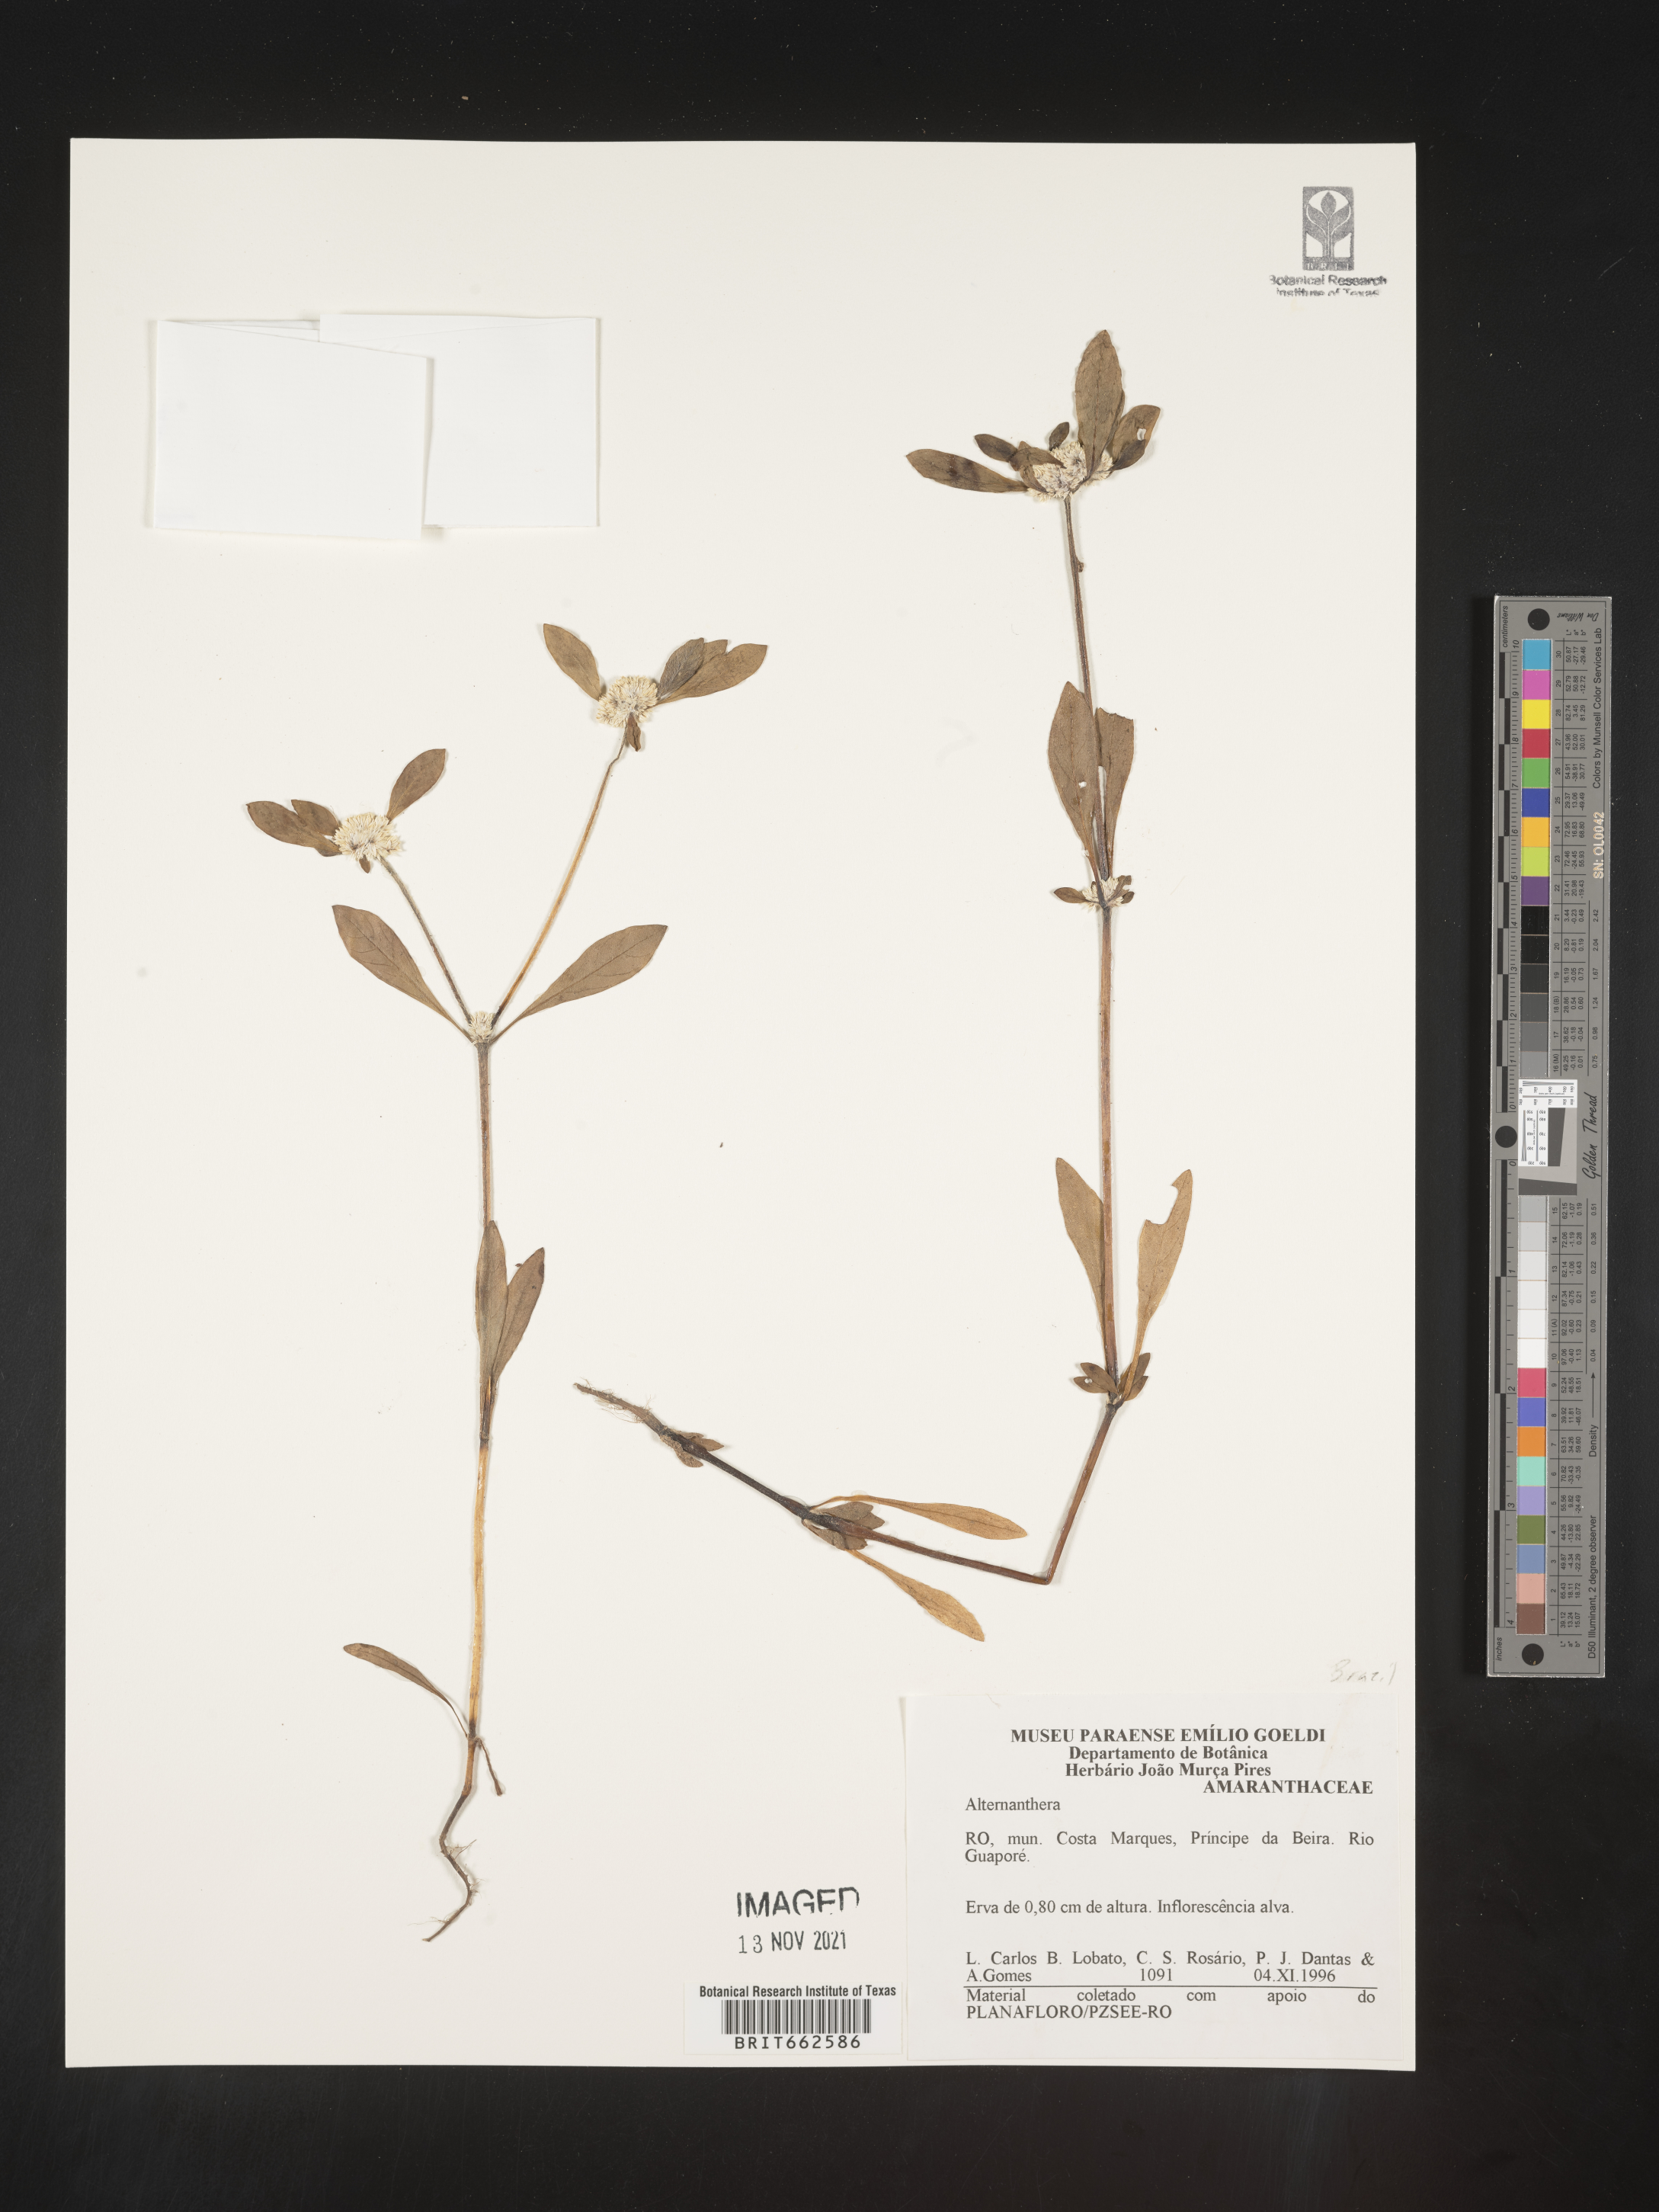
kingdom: Plantae
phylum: Tracheophyta
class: Magnoliopsida
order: Caryophyllales
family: Amaranthaceae
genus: Alternanthera
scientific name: Alternanthera
